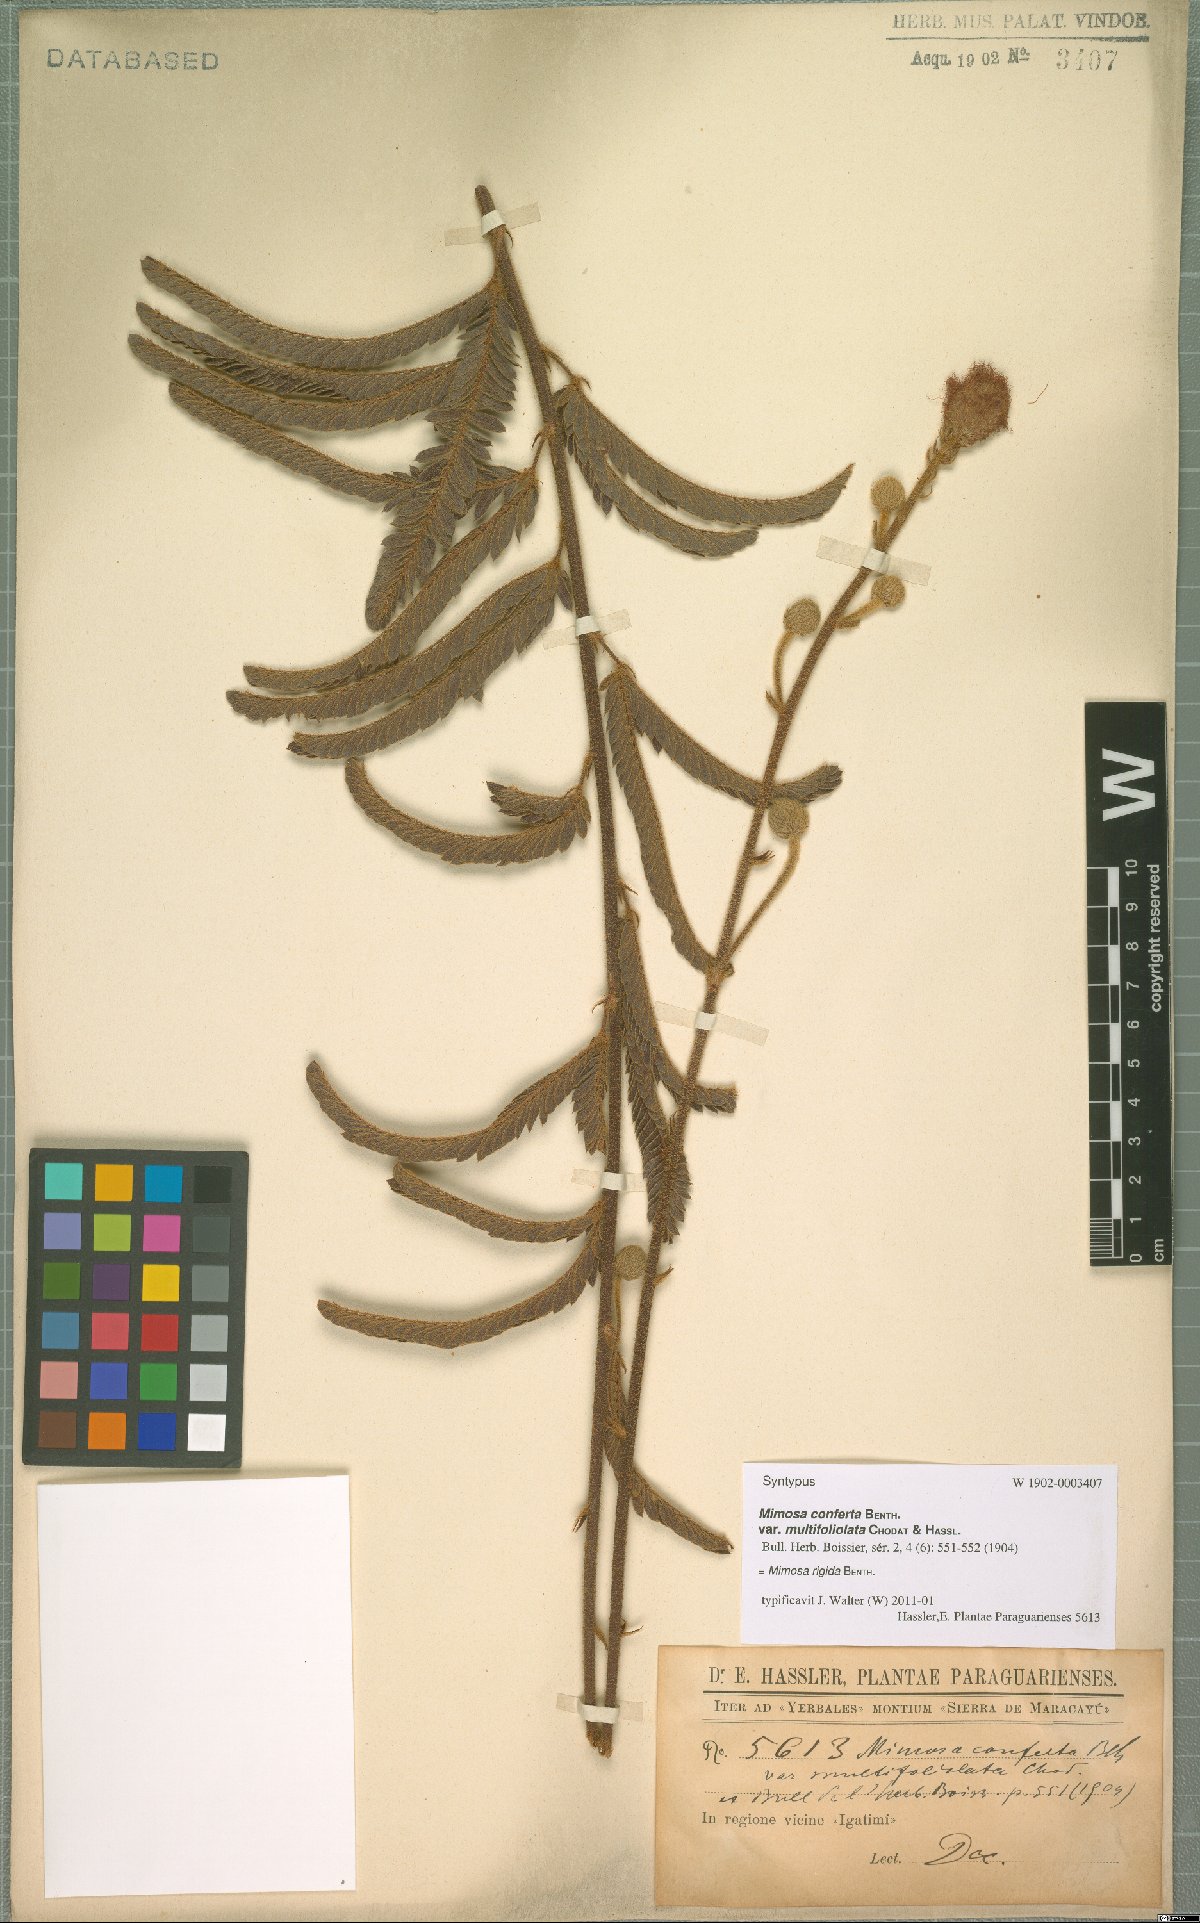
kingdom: Plantae
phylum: Tracheophyta
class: Magnoliopsida
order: Fabales
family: Fabaceae
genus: Mimosa
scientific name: Mimosa dolens
